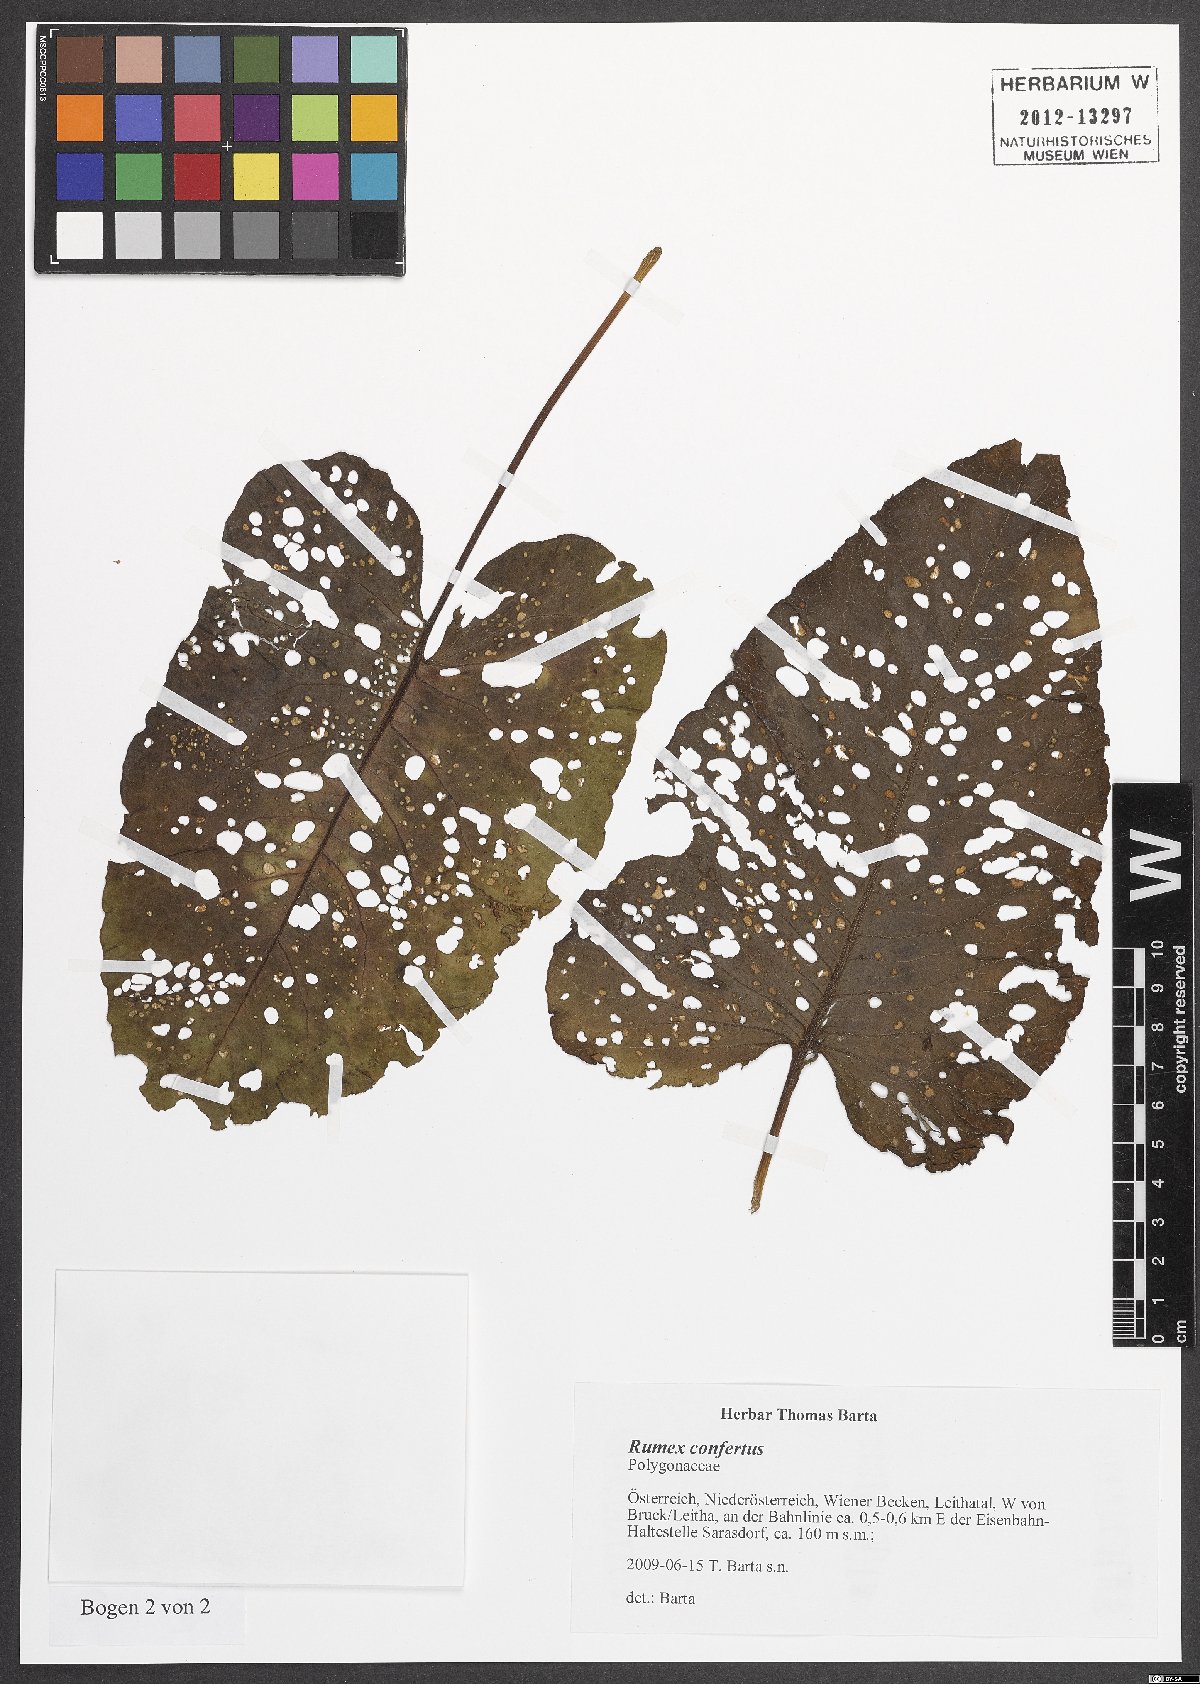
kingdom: Plantae
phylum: Tracheophyta
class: Magnoliopsida
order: Caryophyllales
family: Polygonaceae
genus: Rumex
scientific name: Rumex confertus
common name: Russian dock
